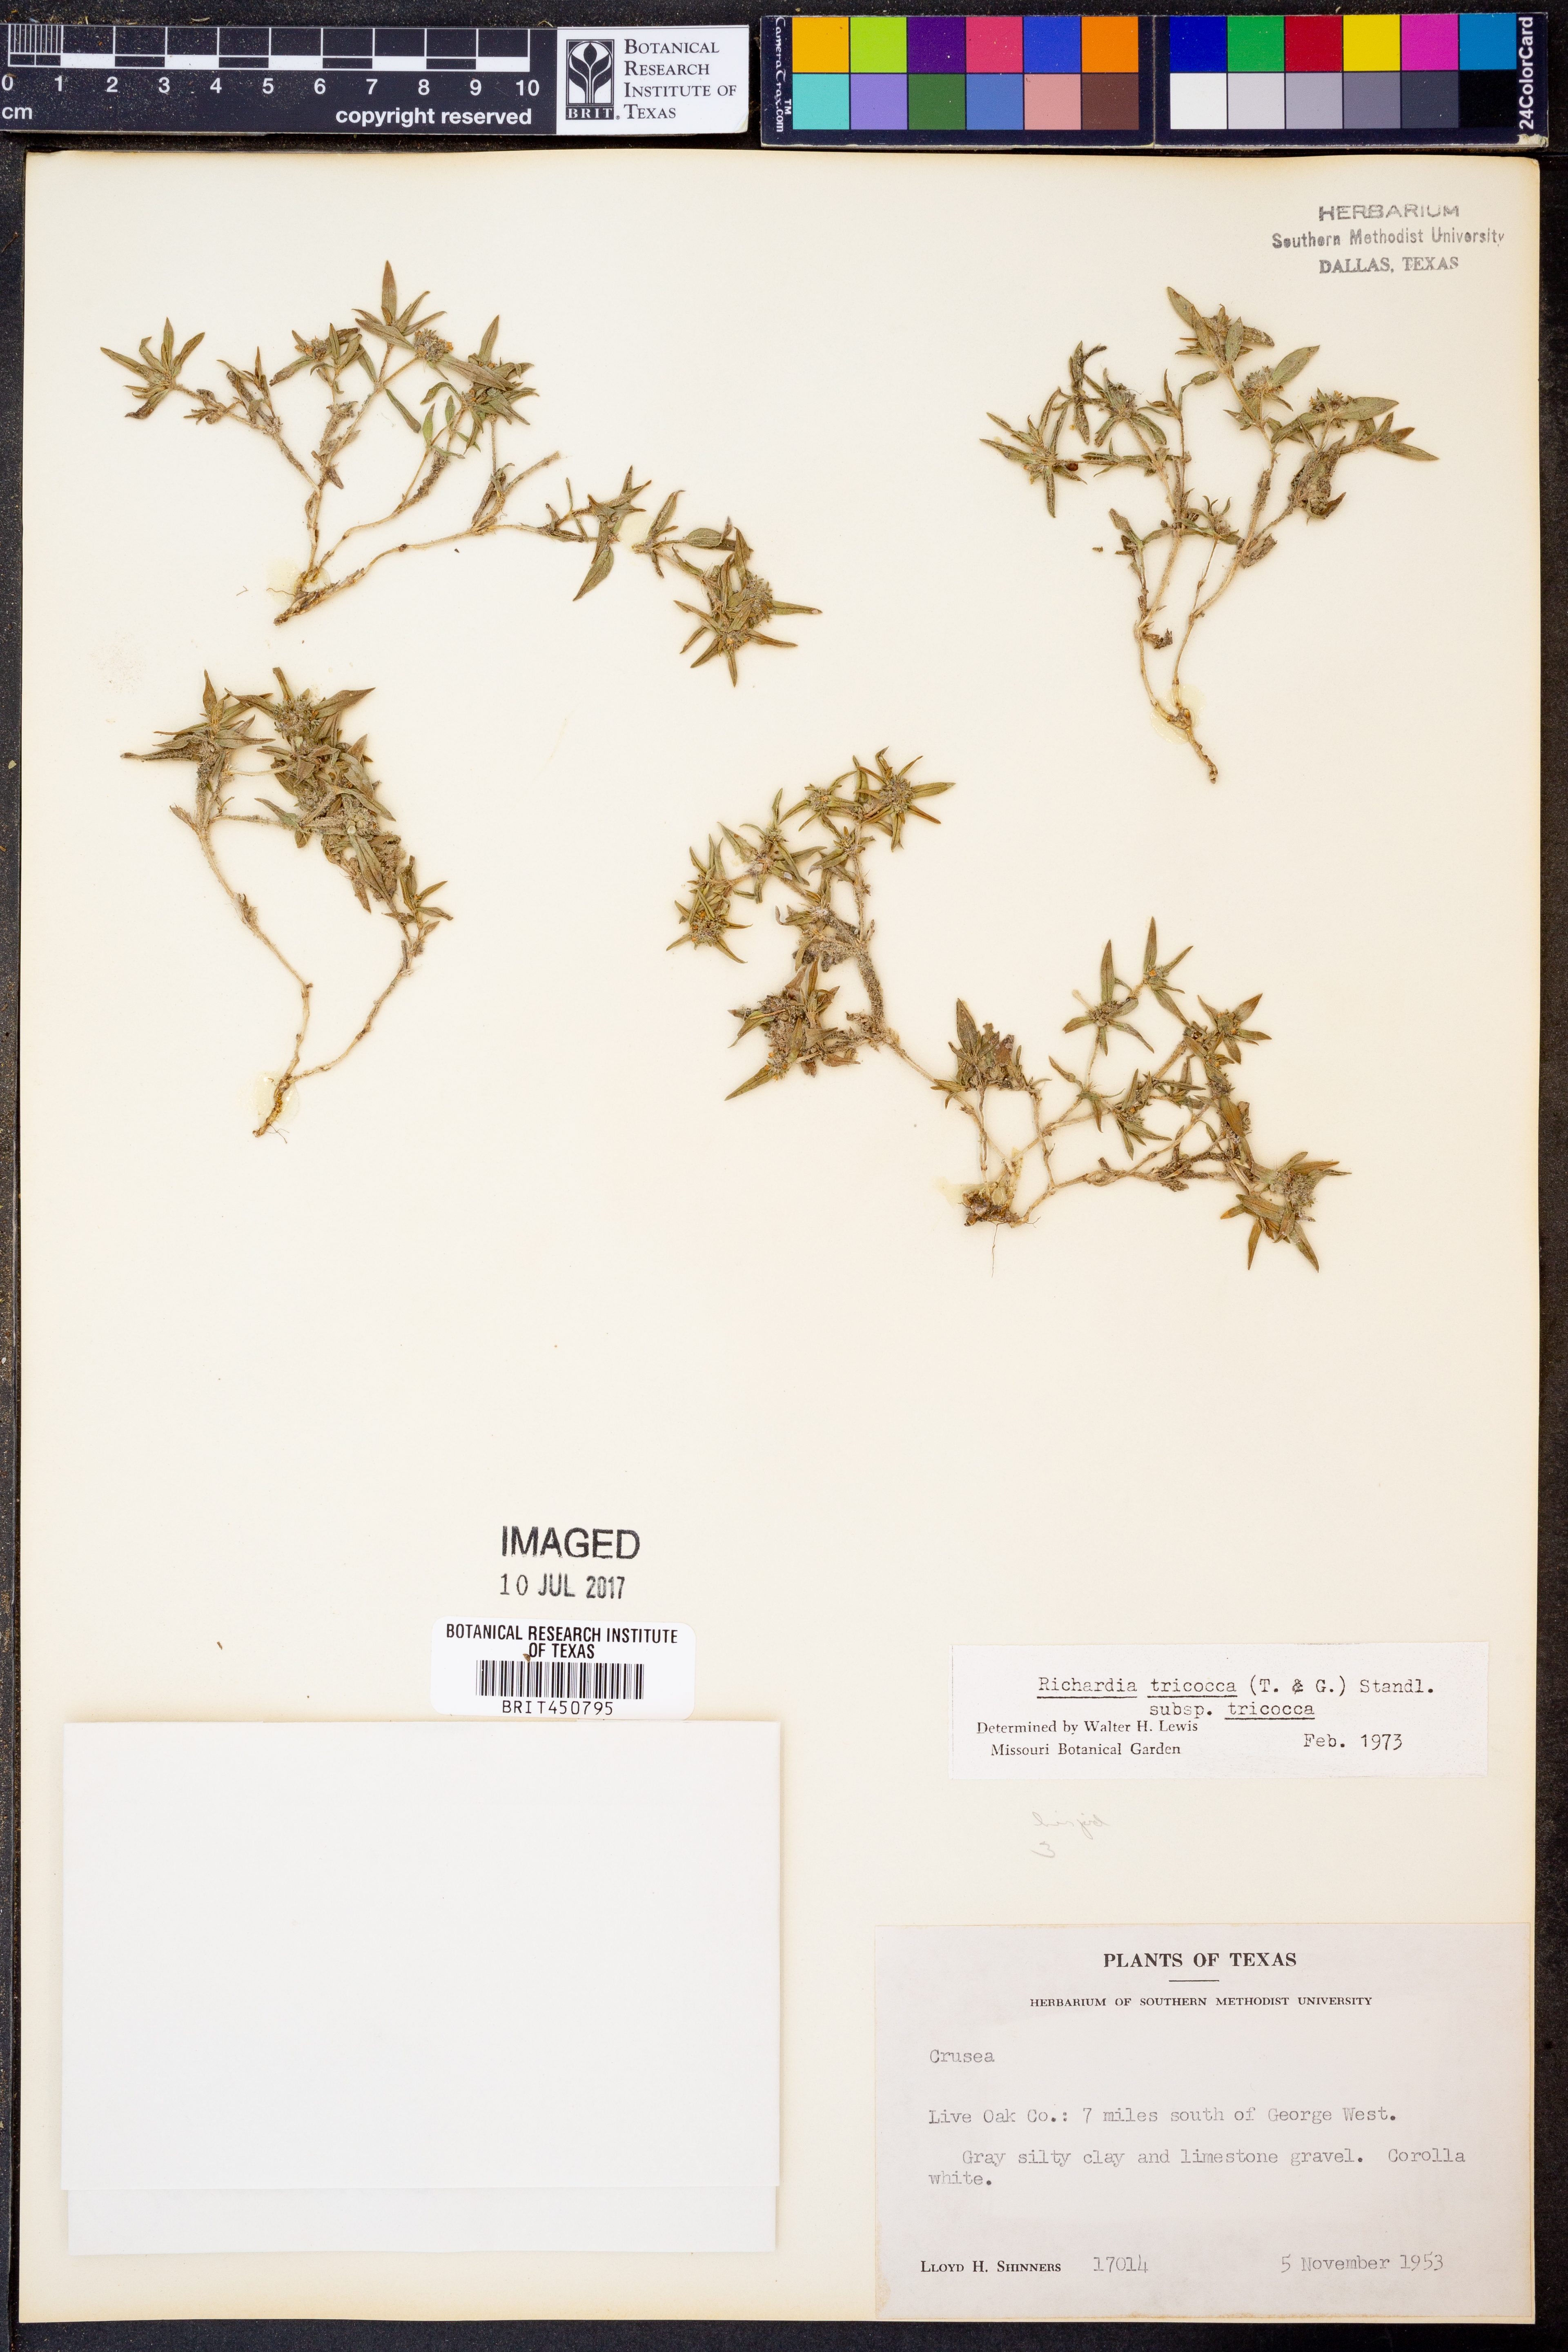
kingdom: Plantae
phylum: Tracheophyta
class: Magnoliopsida
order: Gentianales
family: Rubiaceae
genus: Richardia
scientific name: Richardia tricocca
